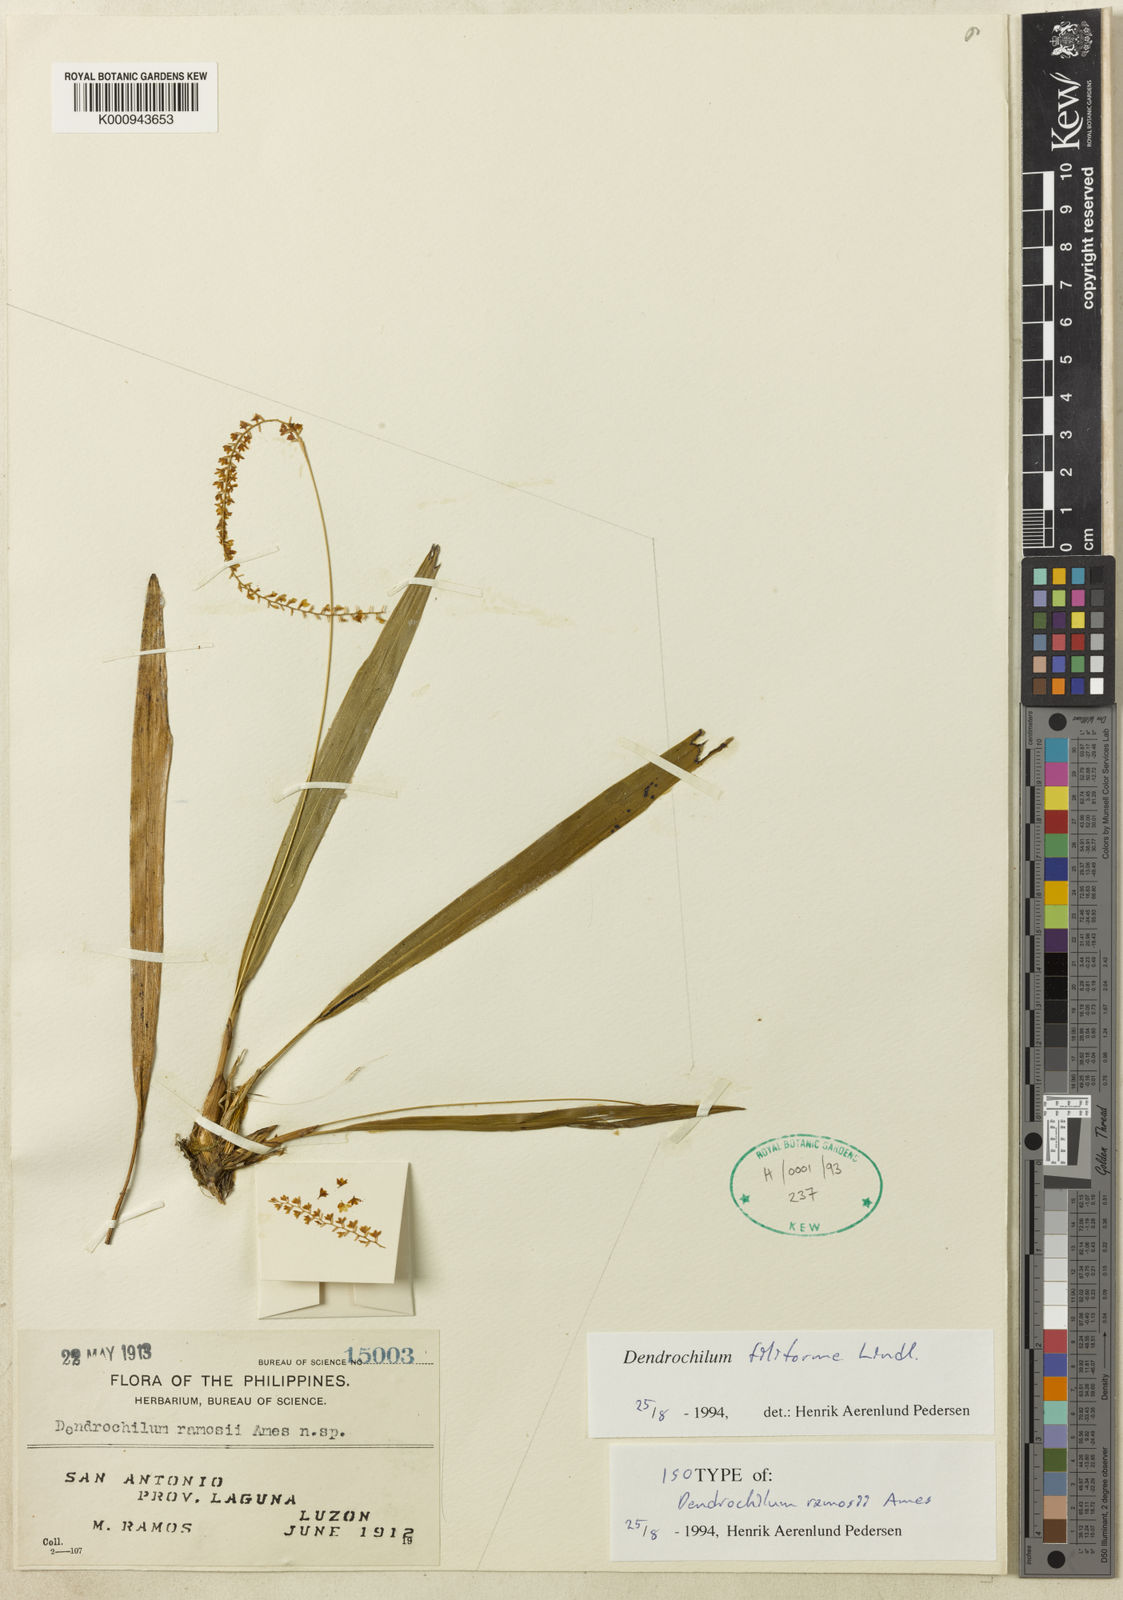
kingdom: Plantae
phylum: Tracheophyta
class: Liliopsida
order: Asparagales
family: Orchidaceae
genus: Coelogyne
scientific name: Coelogyne filiformis
